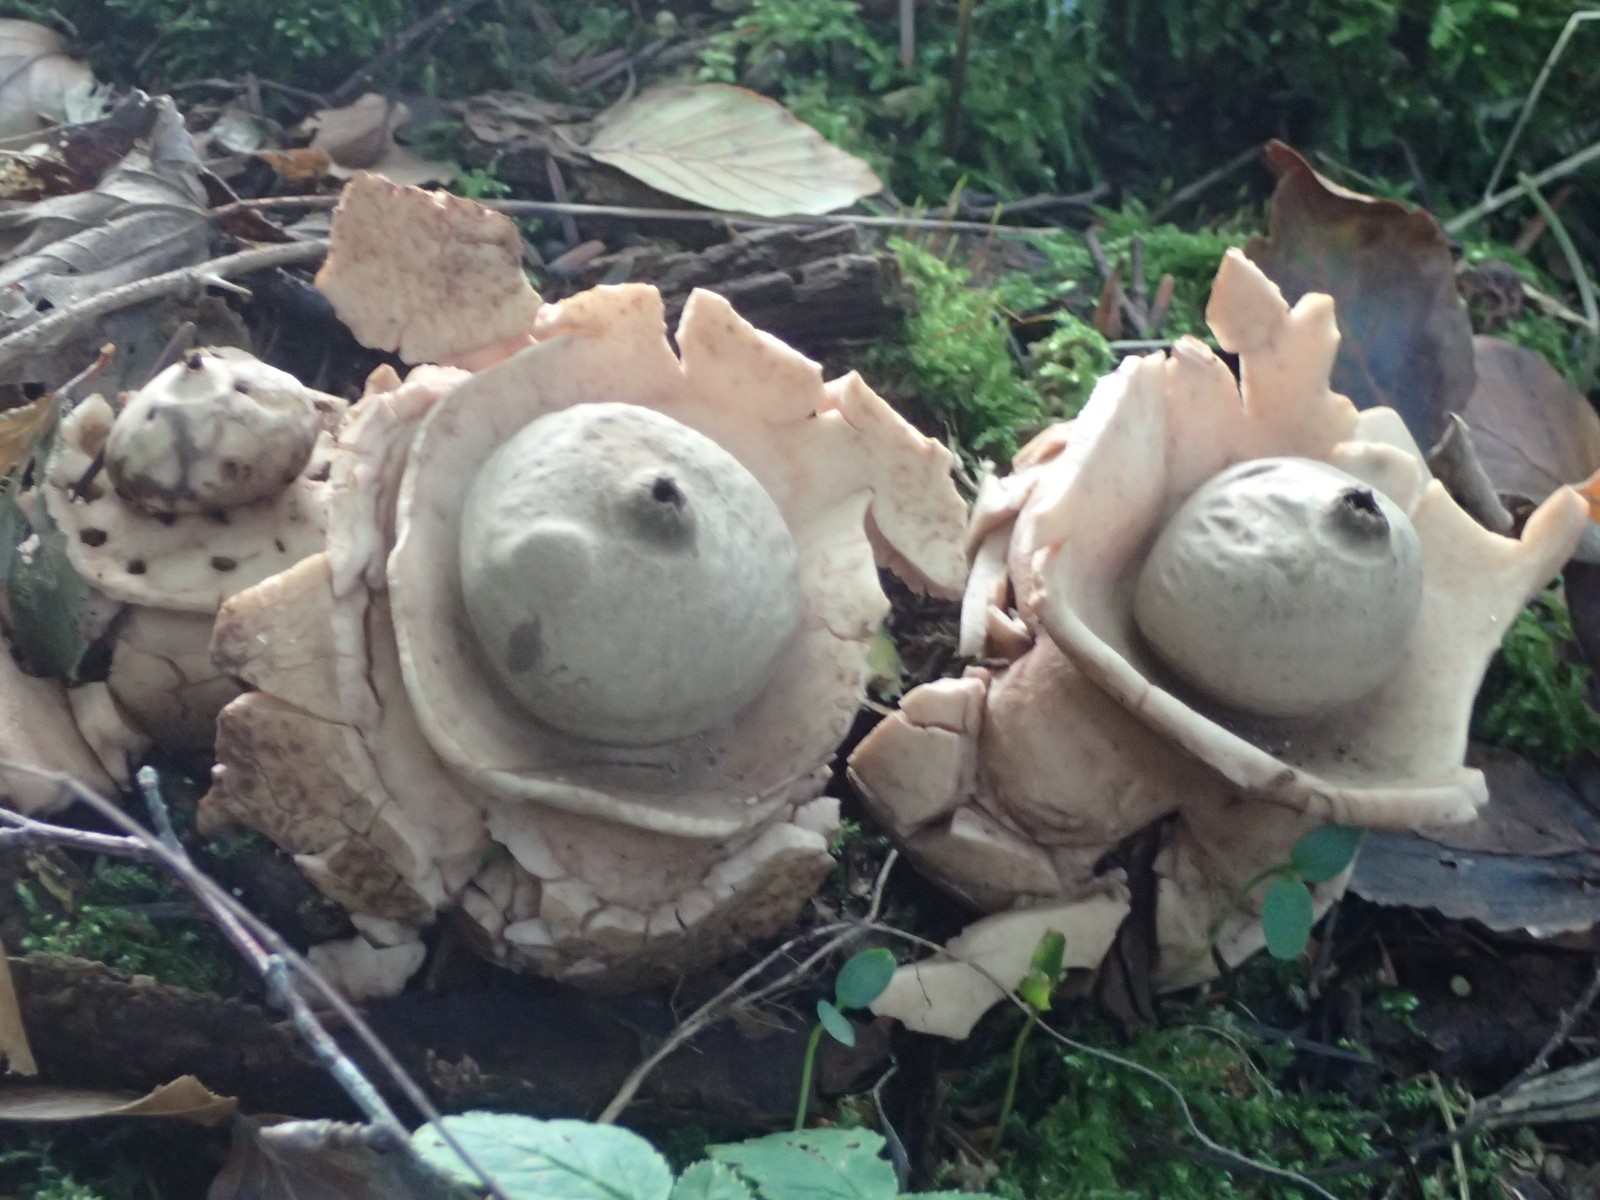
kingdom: Fungi
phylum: Basidiomycota
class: Agaricomycetes
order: Geastrales
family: Geastraceae
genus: Geastrum
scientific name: Geastrum michelianum
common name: kødet stjernebold
